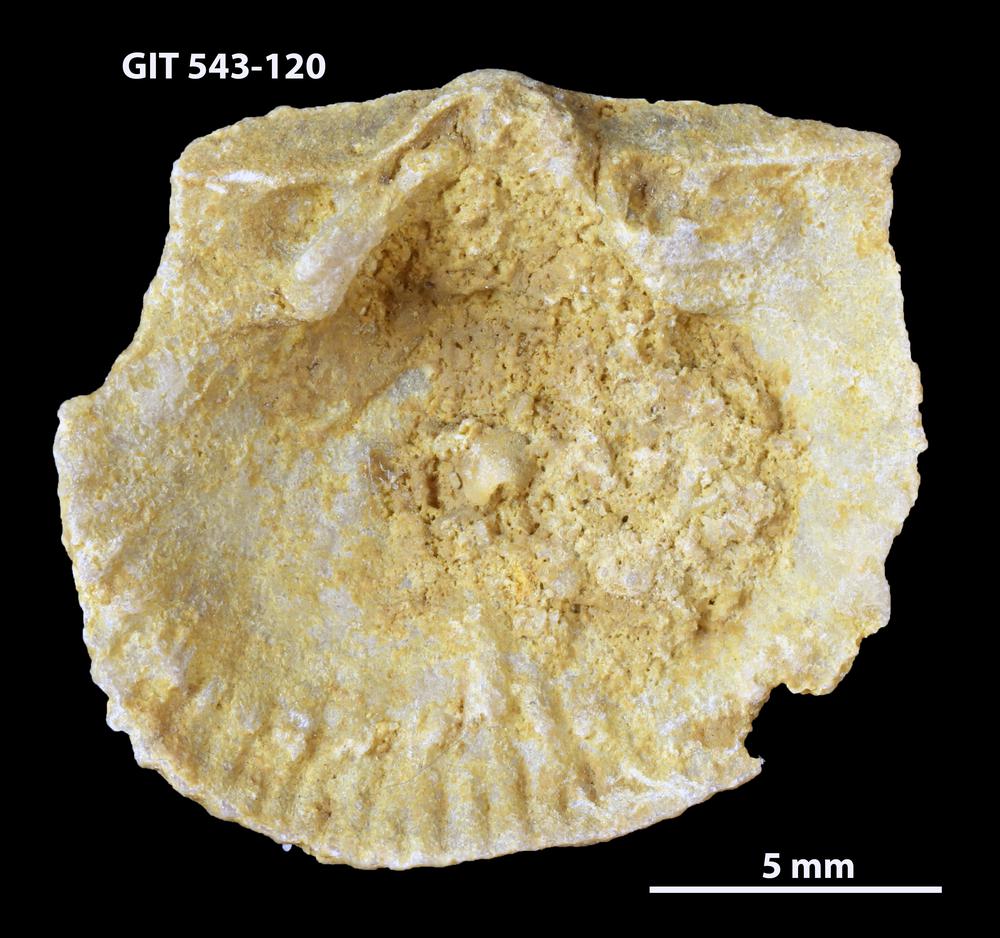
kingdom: Animalia
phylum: Brachiopoda
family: Gonambonitidae
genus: Estlandia
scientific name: Estlandia Orthisina marginata
